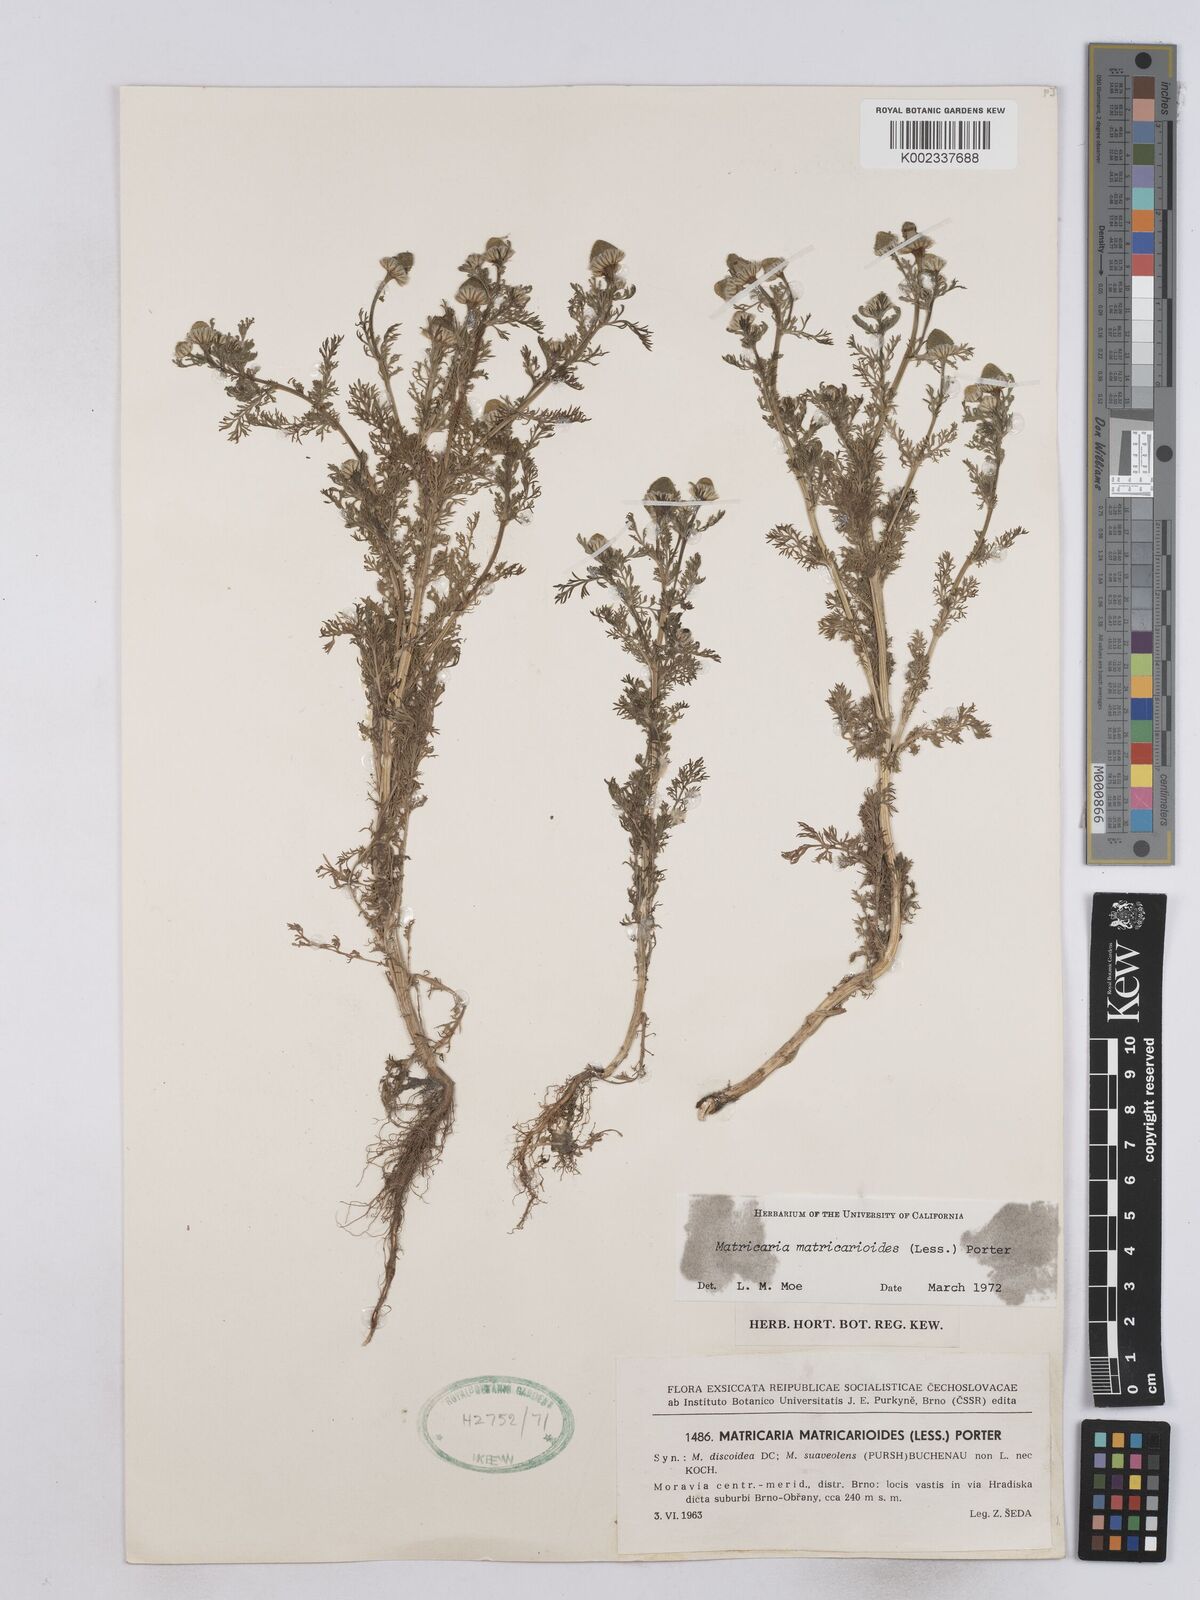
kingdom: Plantae
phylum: Tracheophyta
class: Magnoliopsida
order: Asterales
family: Asteraceae
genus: Matricaria
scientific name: Matricaria discoidea
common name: Disc mayweed
